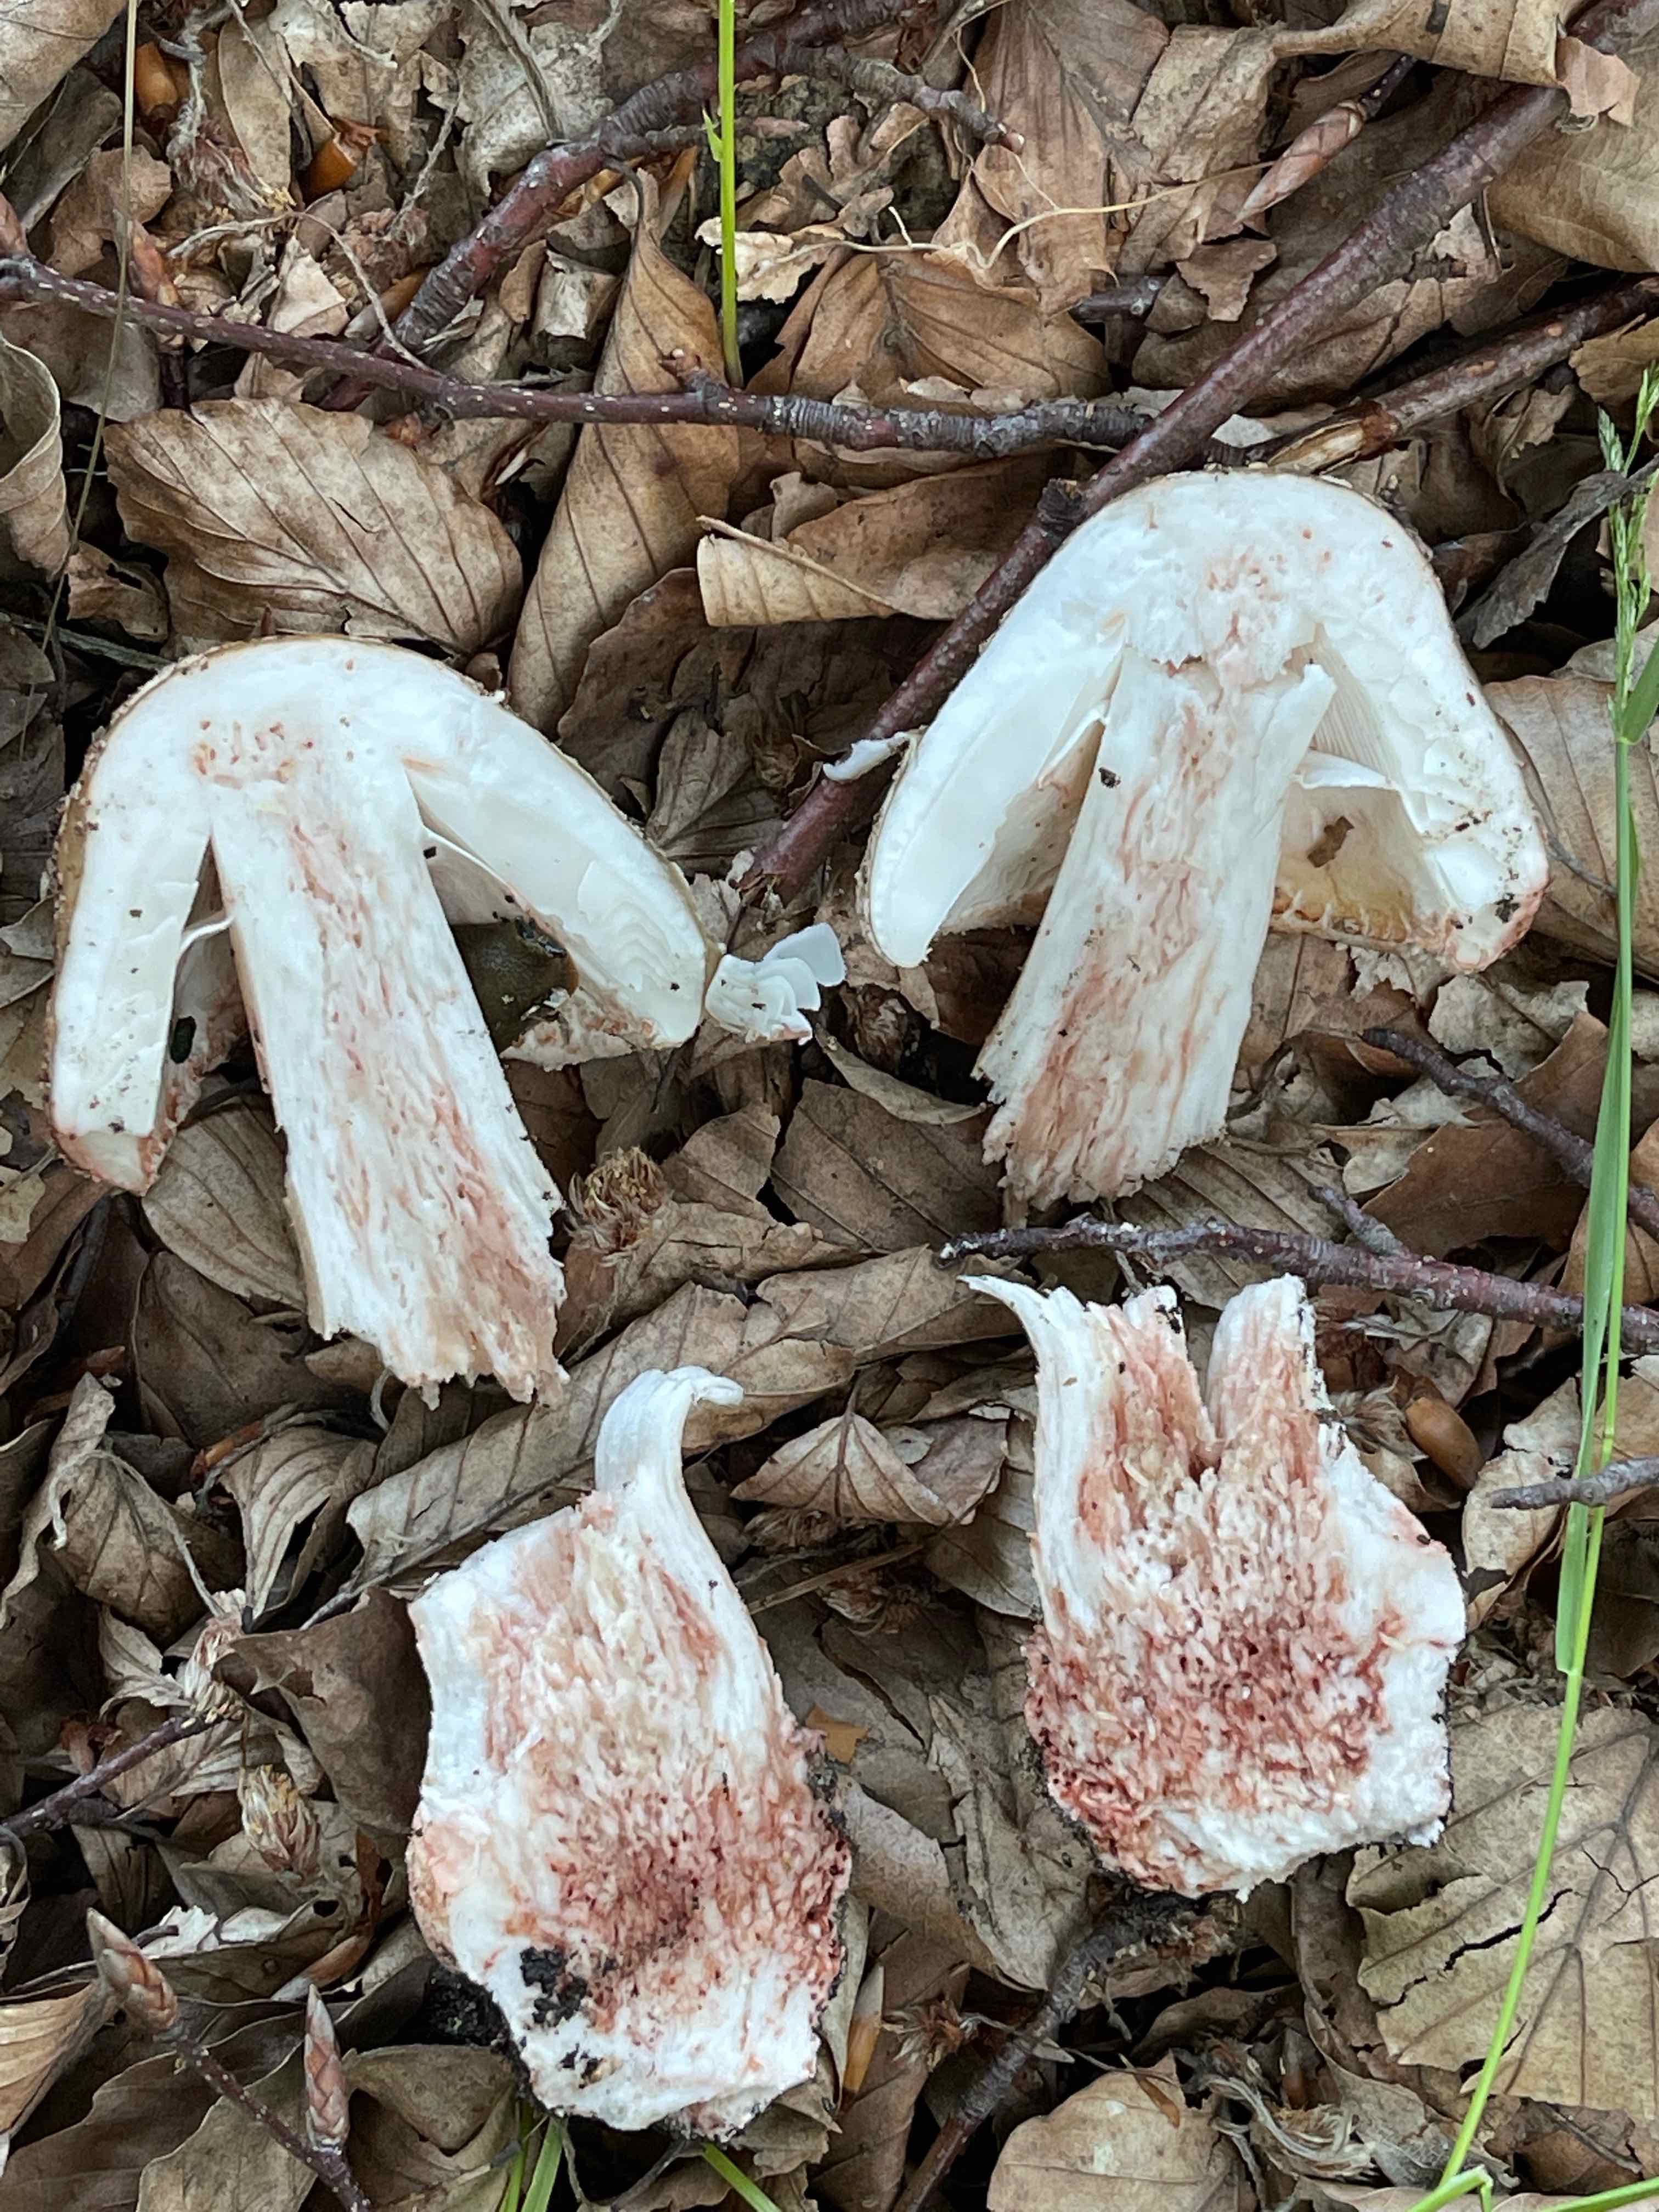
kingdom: Fungi
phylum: Basidiomycota
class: Agaricomycetes
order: Agaricales
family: Amanitaceae
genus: Amanita
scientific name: Amanita rubescens
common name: rødmende fluesvamp
